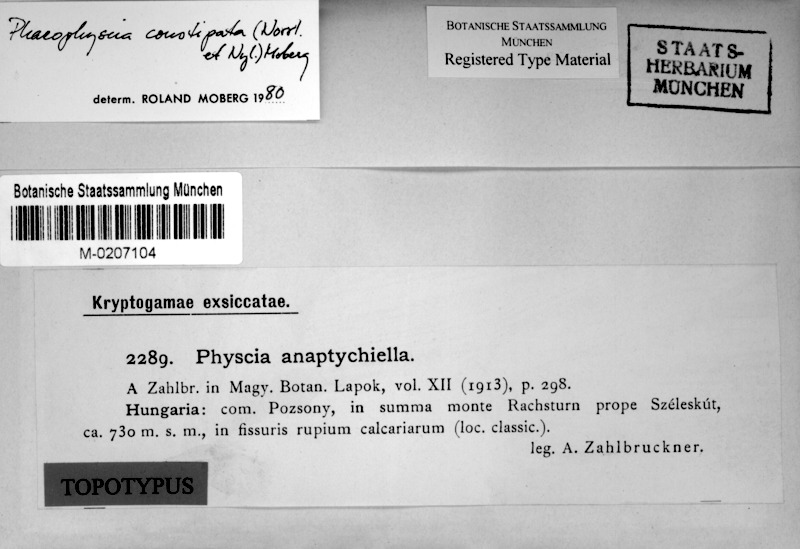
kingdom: Fungi
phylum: Ascomycota
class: Lecanoromycetes
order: Caliciales
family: Physciaceae
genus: Phaeophyscia
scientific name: Phaeophyscia constipata
